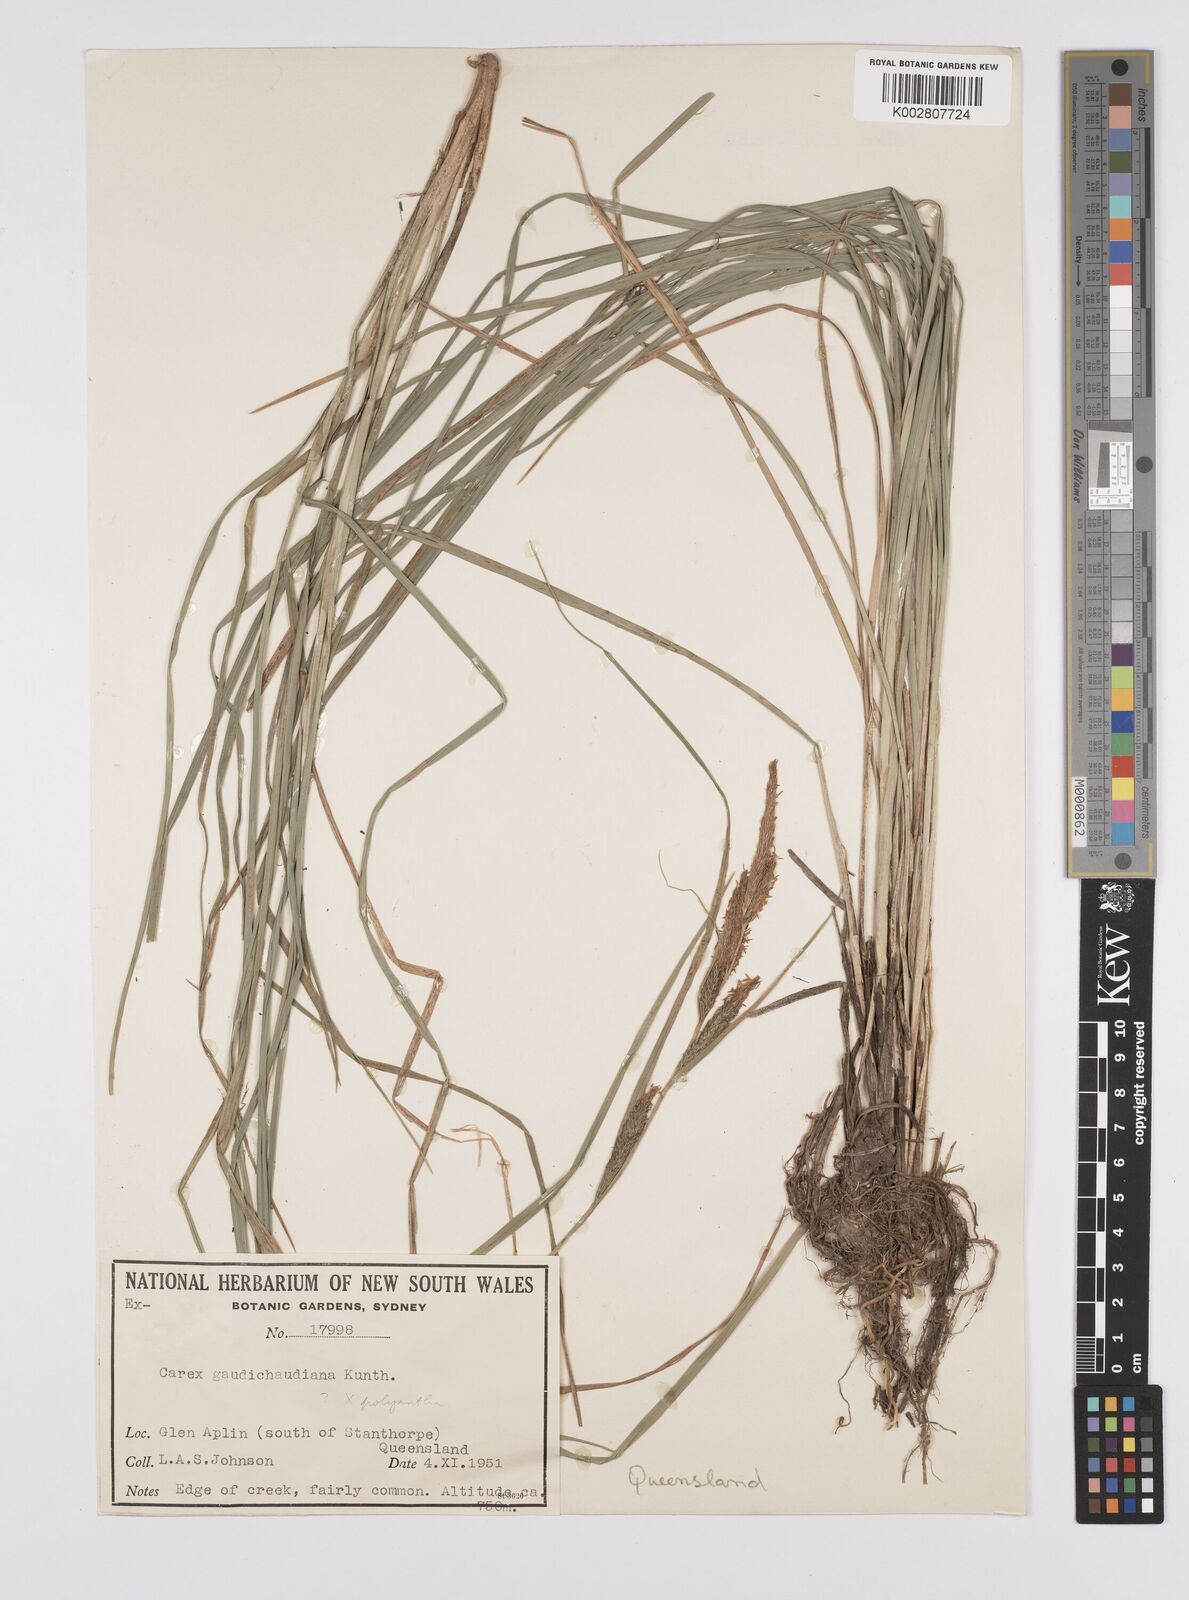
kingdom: Plantae
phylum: Tracheophyta
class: Liliopsida
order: Poales
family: Cyperaceae
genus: Carex
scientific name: Carex gaudichaudiana
